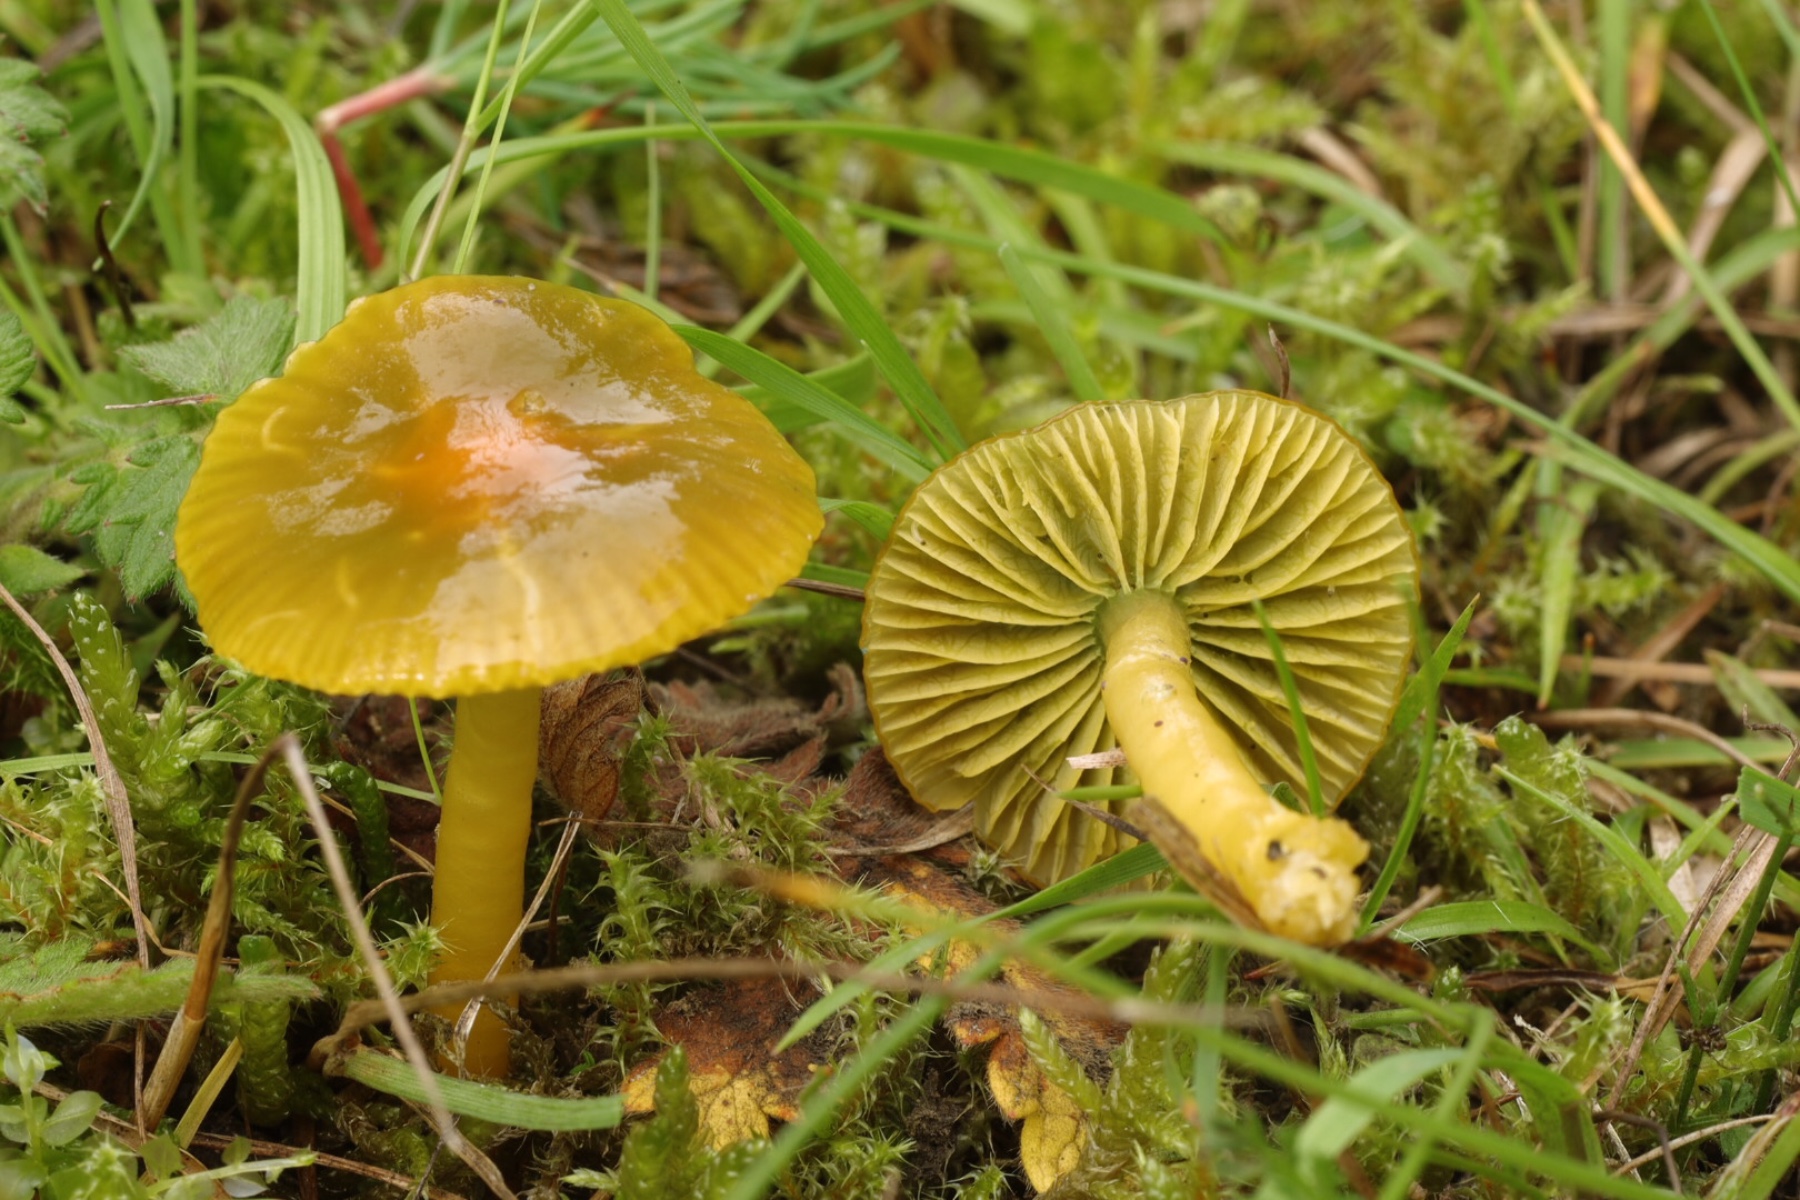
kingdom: Fungi
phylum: Basidiomycota
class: Agaricomycetes
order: Agaricales
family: Hygrophoraceae
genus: Gliophorus
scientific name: Gliophorus psittacinus
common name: papegøje-vokshat
